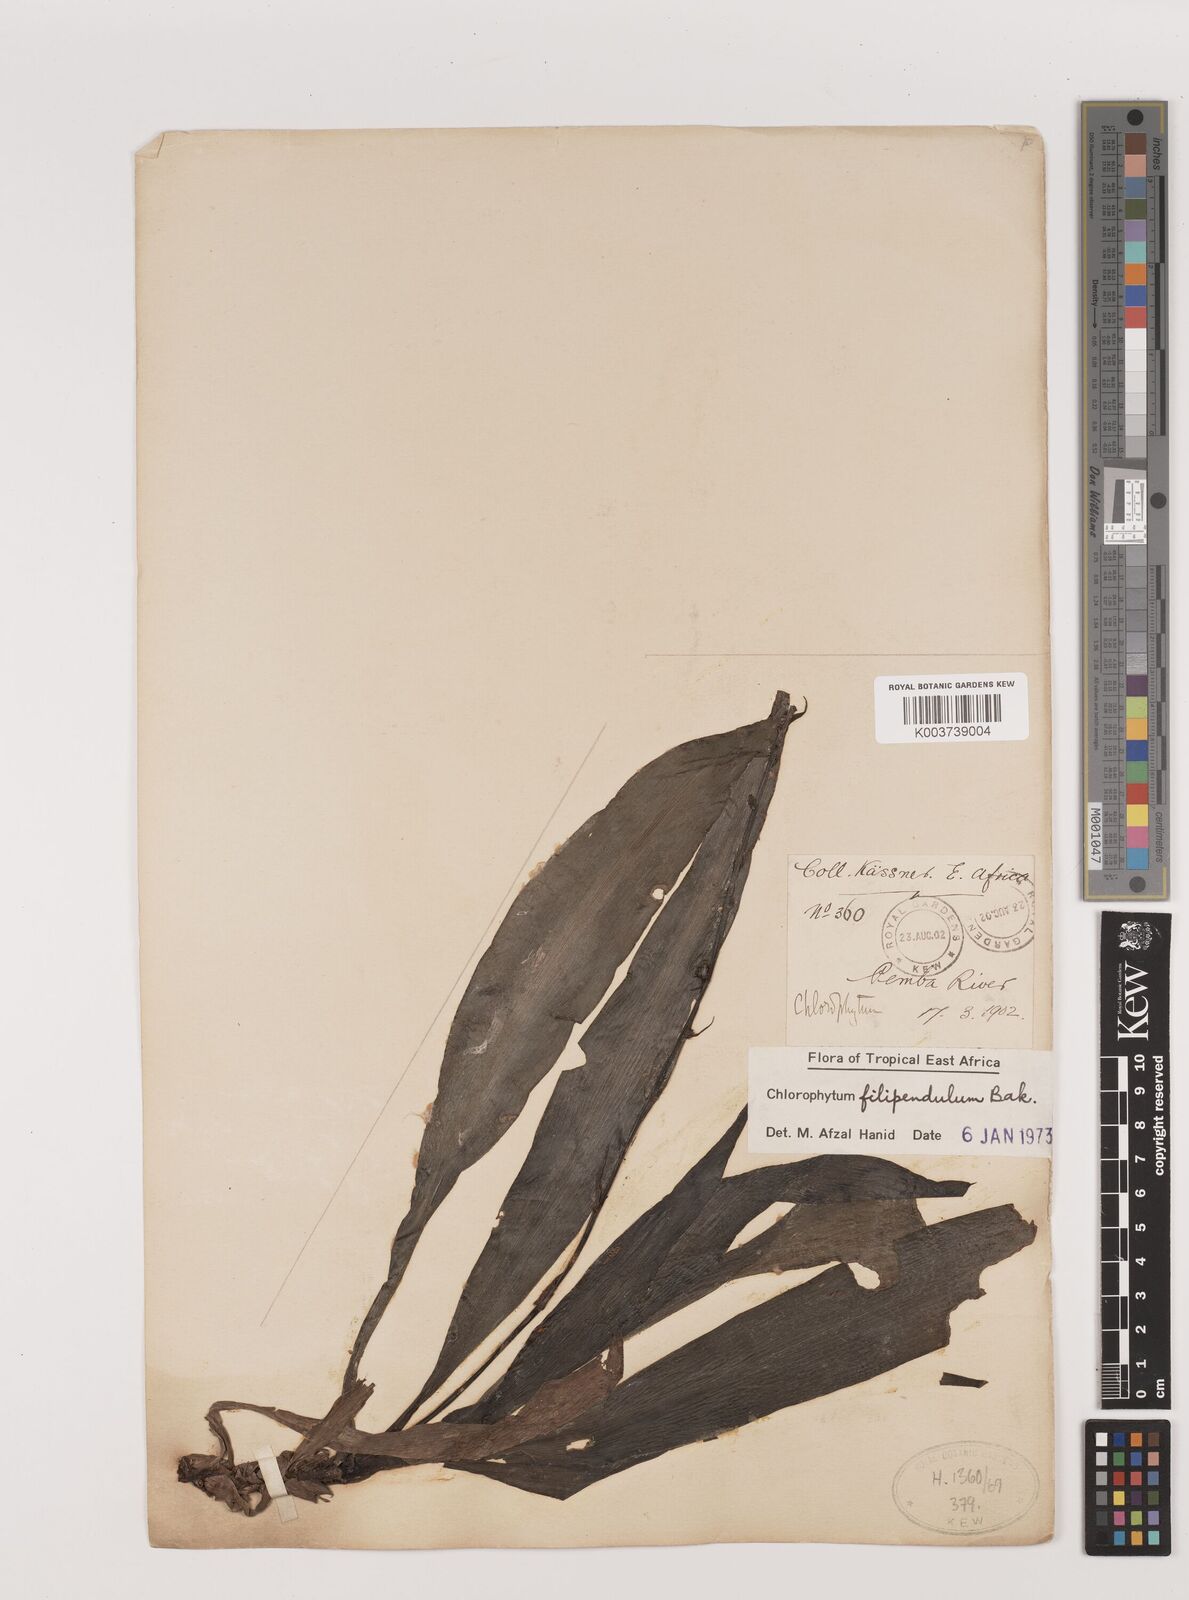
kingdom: Plantae
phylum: Tracheophyta
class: Liliopsida
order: Asparagales
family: Asparagaceae
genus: Chlorophytum
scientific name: Chlorophytum filipendulum
